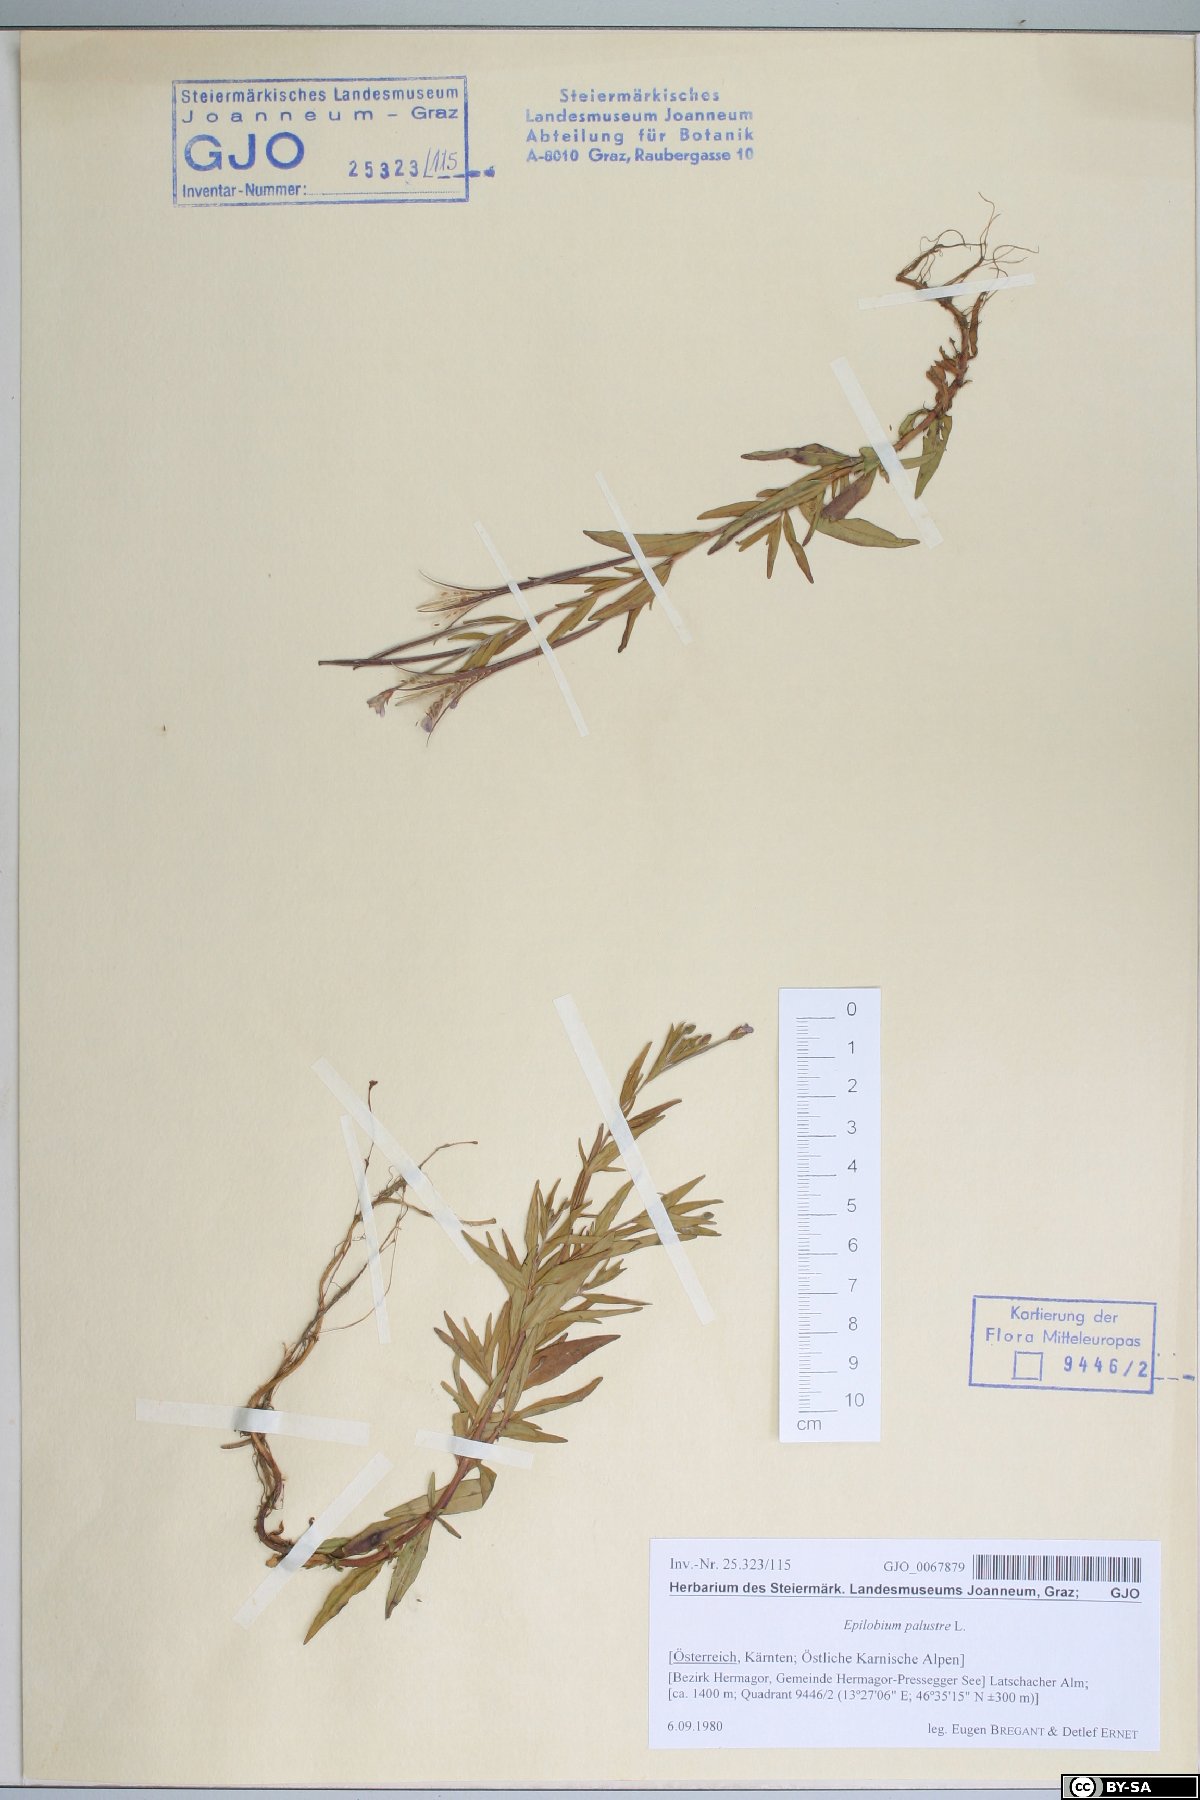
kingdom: Plantae
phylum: Tracheophyta
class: Magnoliopsida
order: Myrtales
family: Onagraceae
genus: Epilobium
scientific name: Epilobium palustre
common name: Marsh willowherb
